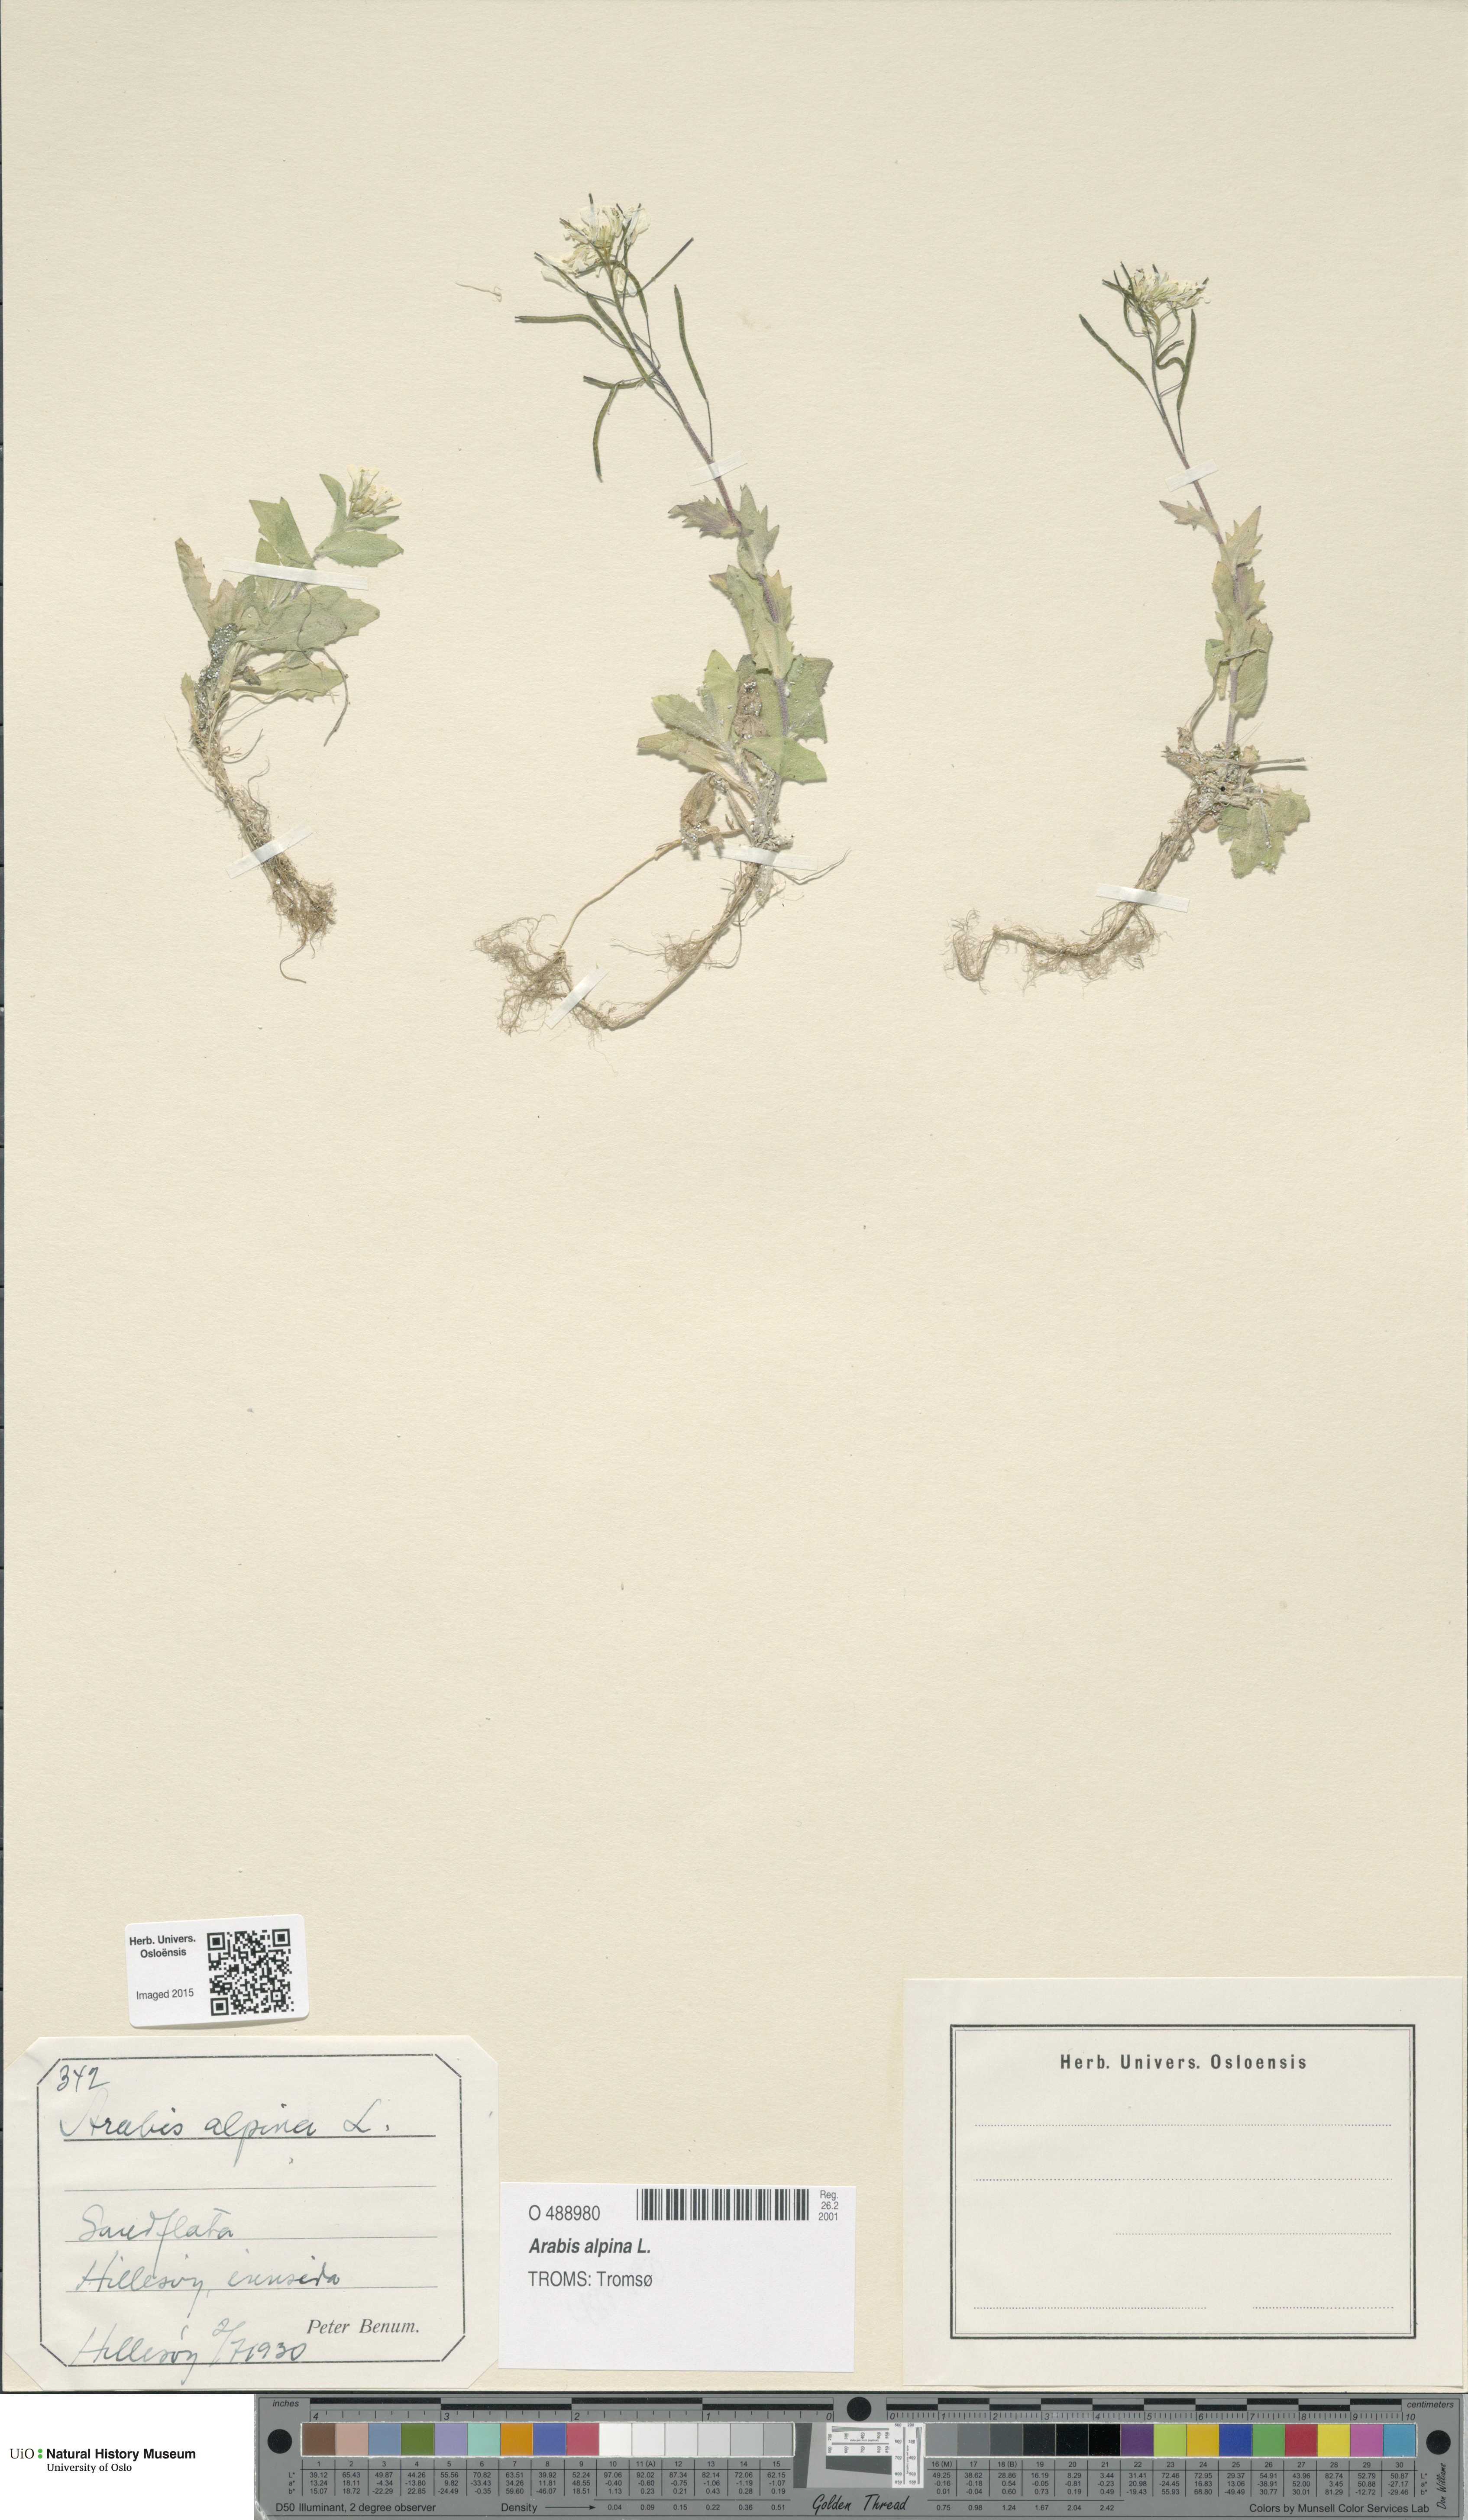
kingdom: Plantae
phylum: Tracheophyta
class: Magnoliopsida
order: Brassicales
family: Brassicaceae
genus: Arabis
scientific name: Arabis alpina
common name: Alpine rock-cress
